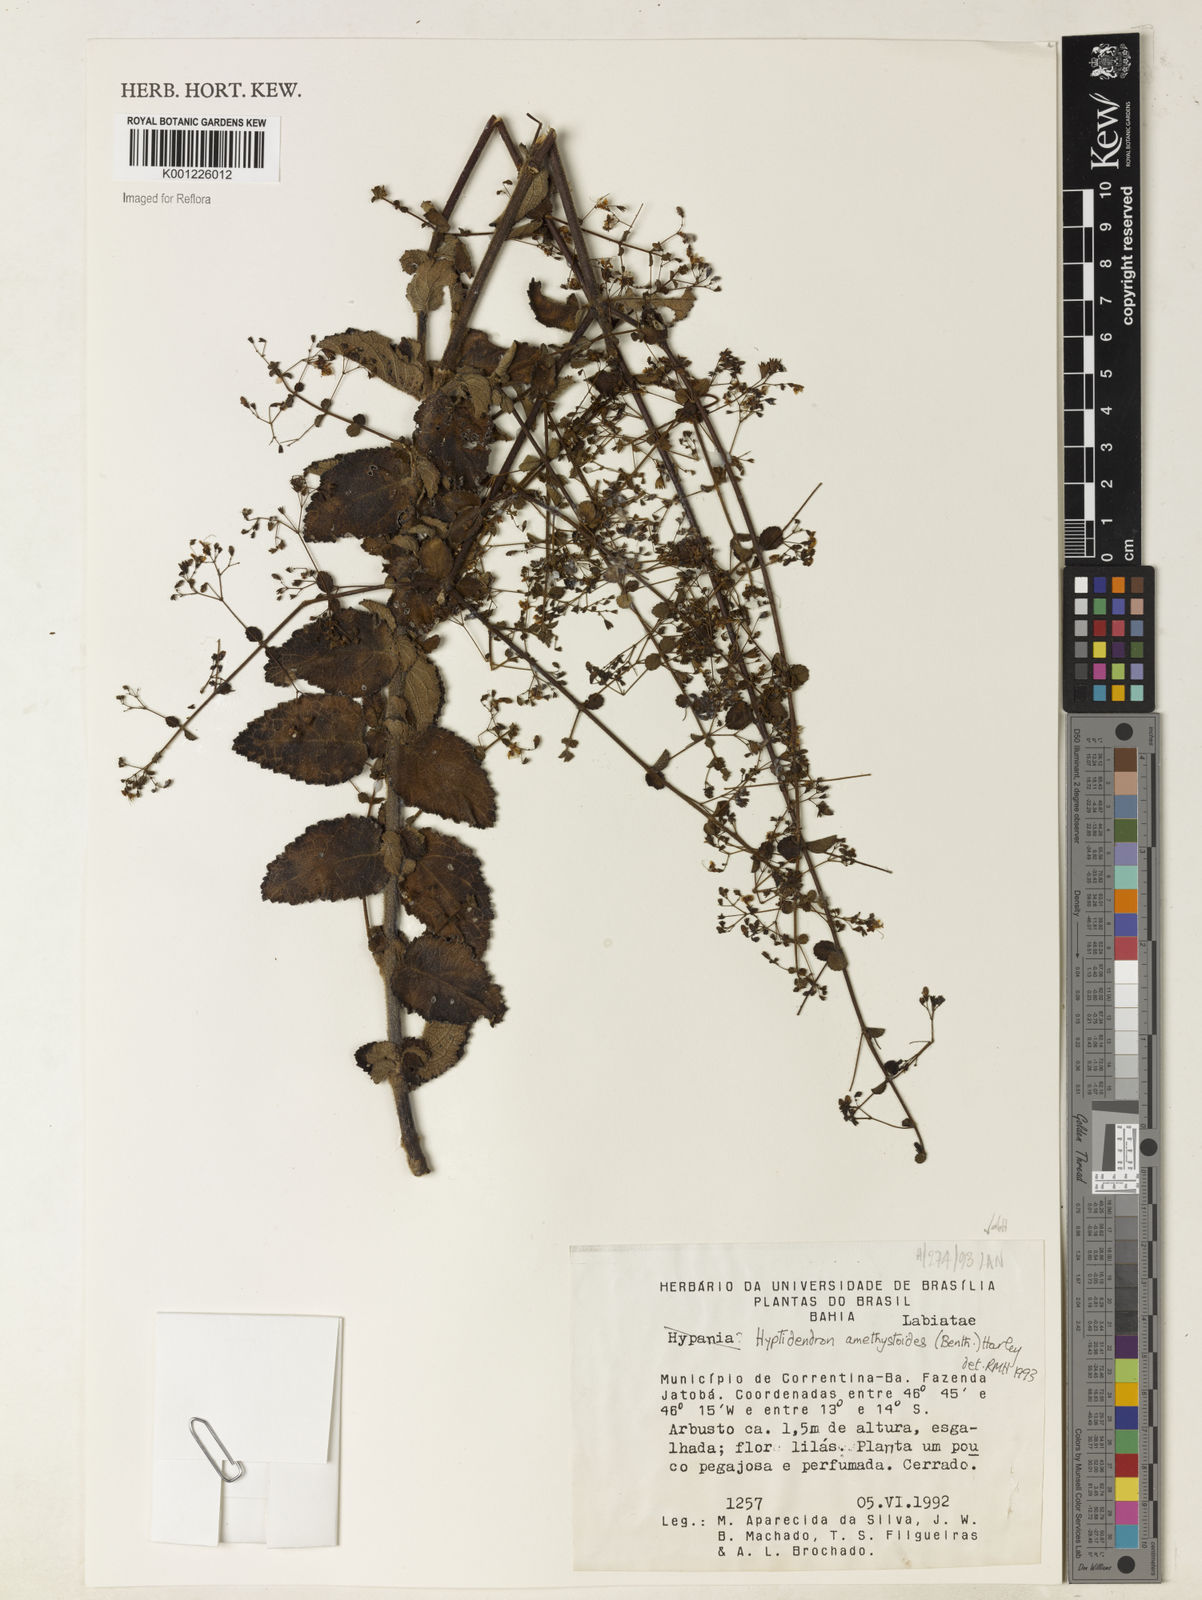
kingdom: Plantae
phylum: Tracheophyta
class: Magnoliopsida
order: Lamiales
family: Lamiaceae
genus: Hyptidendron
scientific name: Hyptidendron amethystoides
